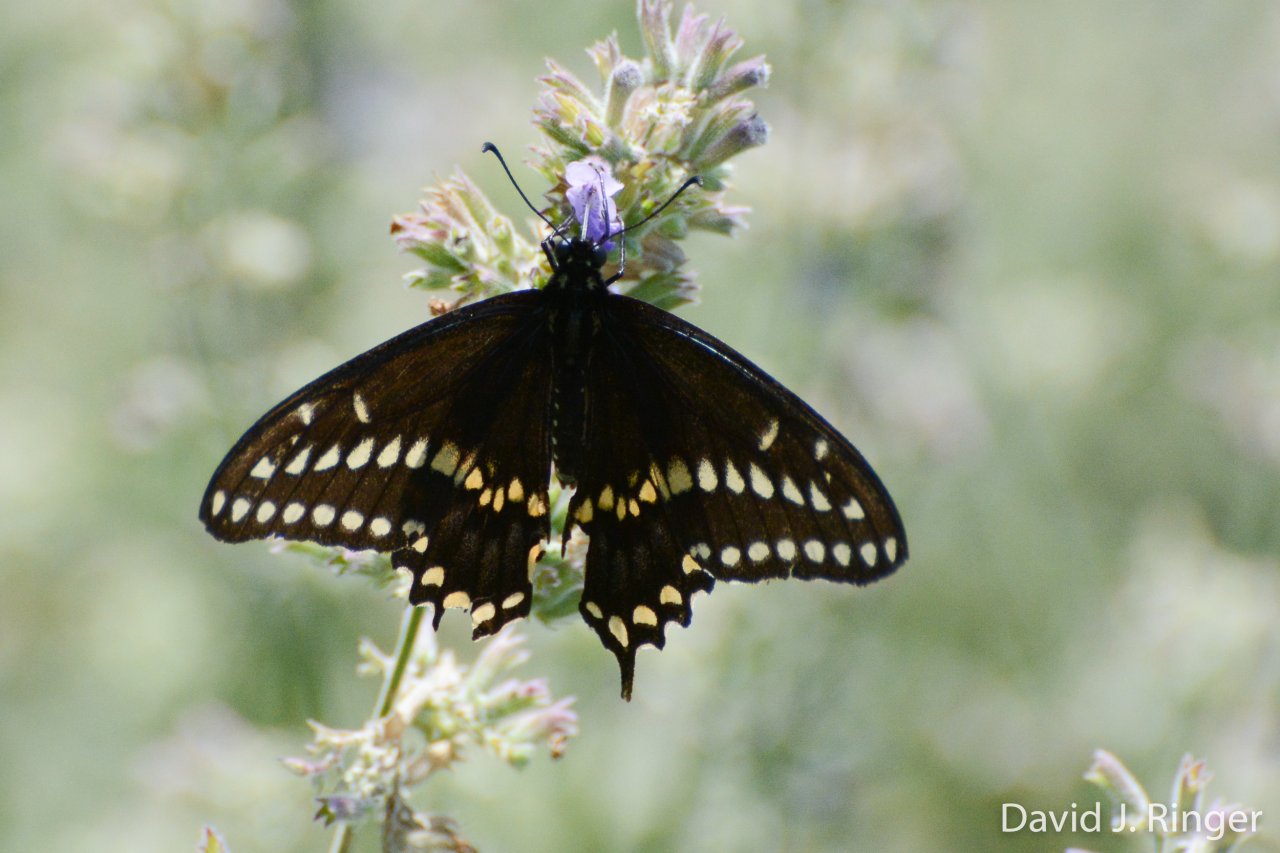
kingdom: Animalia
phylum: Arthropoda
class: Insecta
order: Lepidoptera
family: Papilionidae
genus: Papilio
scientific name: Papilio polyxenes
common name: Black Swallowtail
